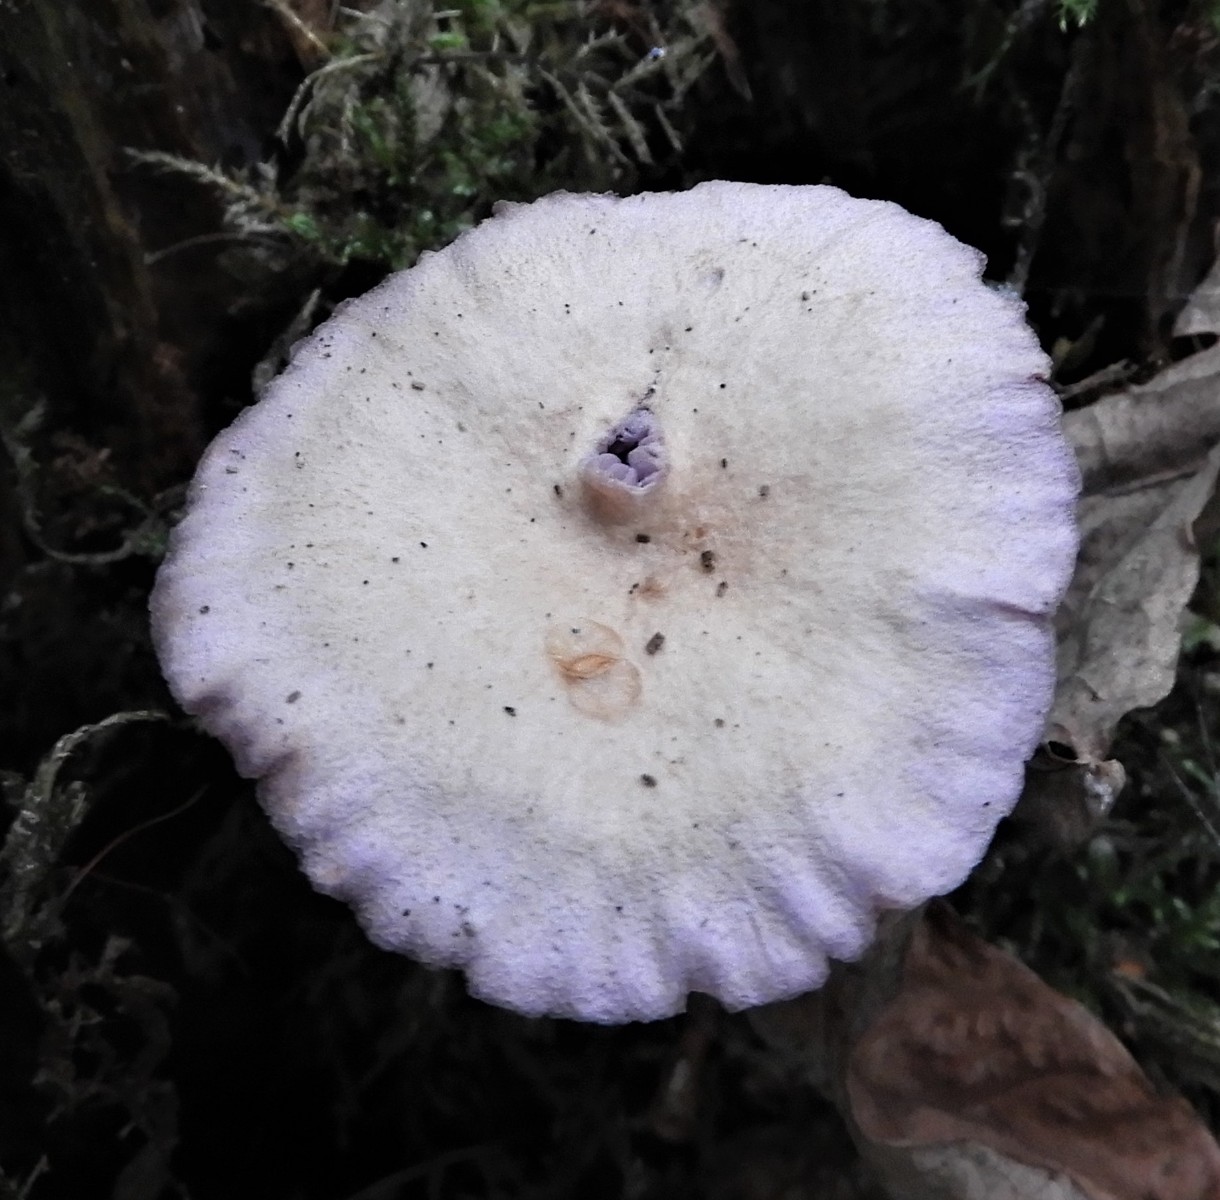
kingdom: Fungi
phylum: Basidiomycota
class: Agaricomycetes
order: Agaricales
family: Mycenaceae
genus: Mycena
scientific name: Mycena pelianthina
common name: mørkbladet huesvamp
